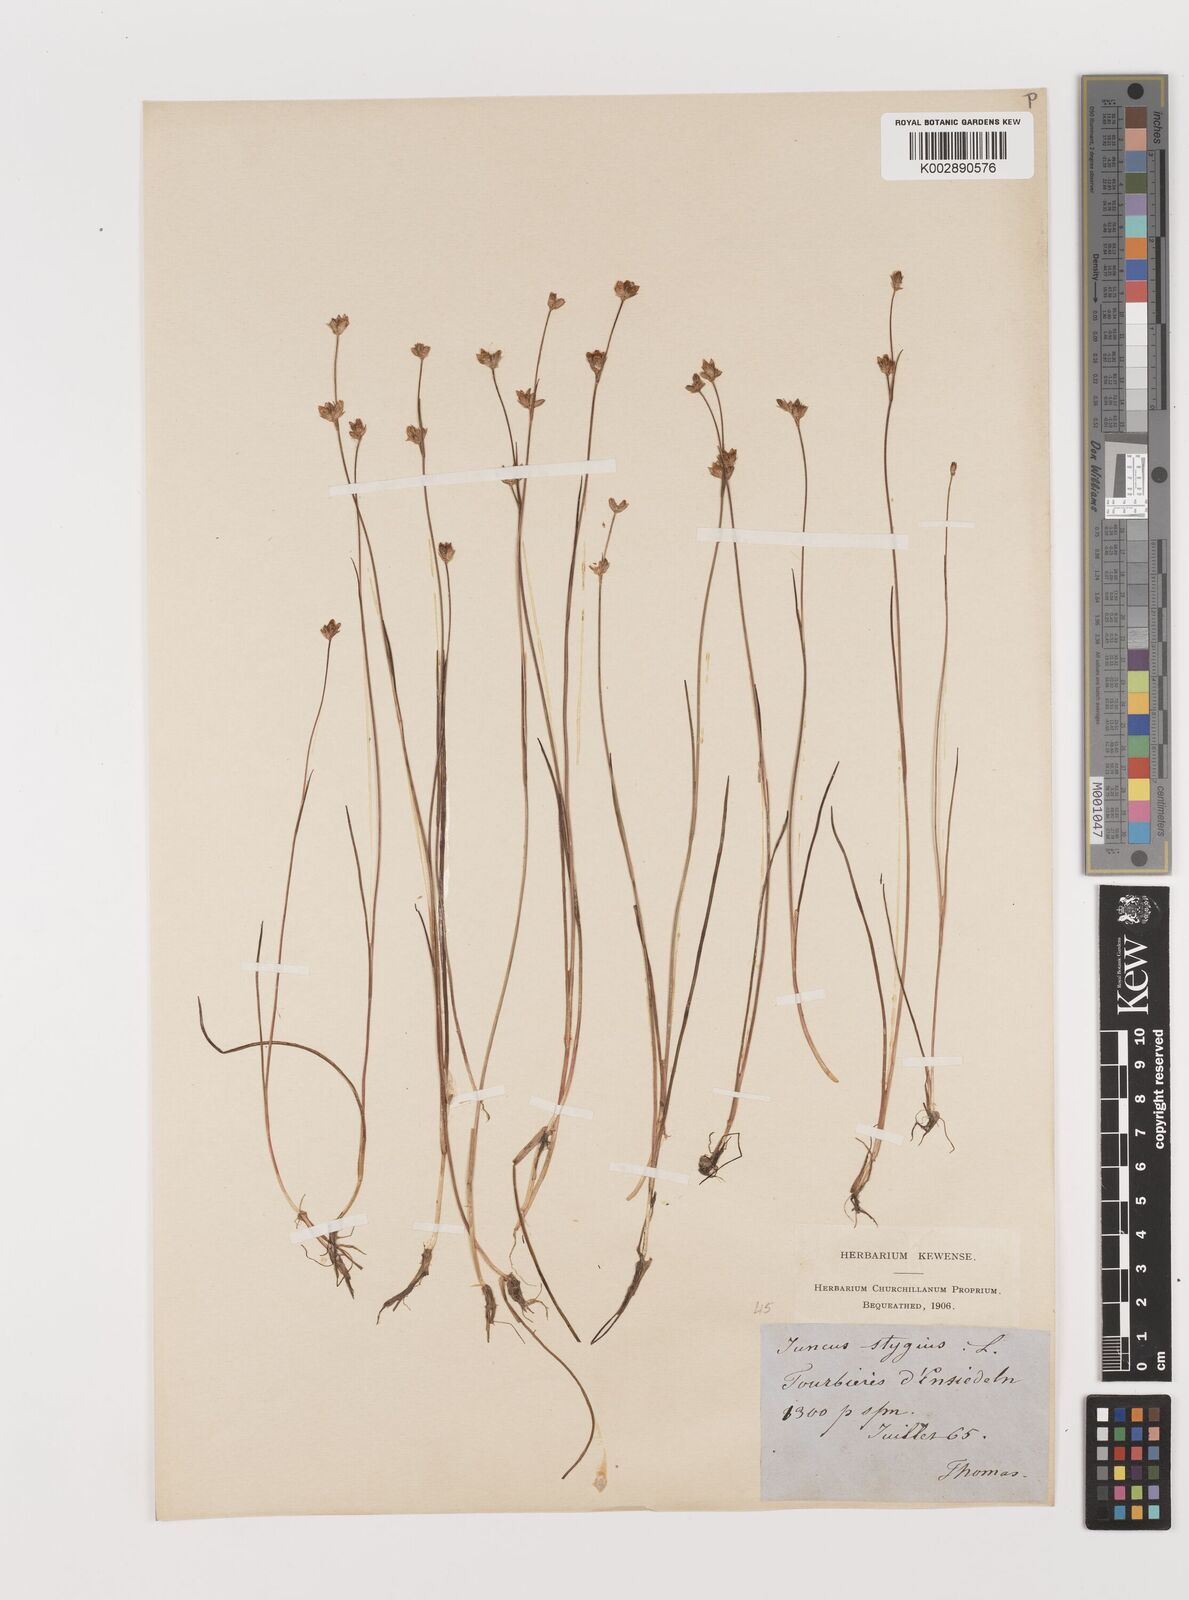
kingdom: Plantae
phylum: Tracheophyta
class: Liliopsida
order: Poales
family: Juncaceae
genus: Juncus
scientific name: Juncus stygius
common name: Bog rush
